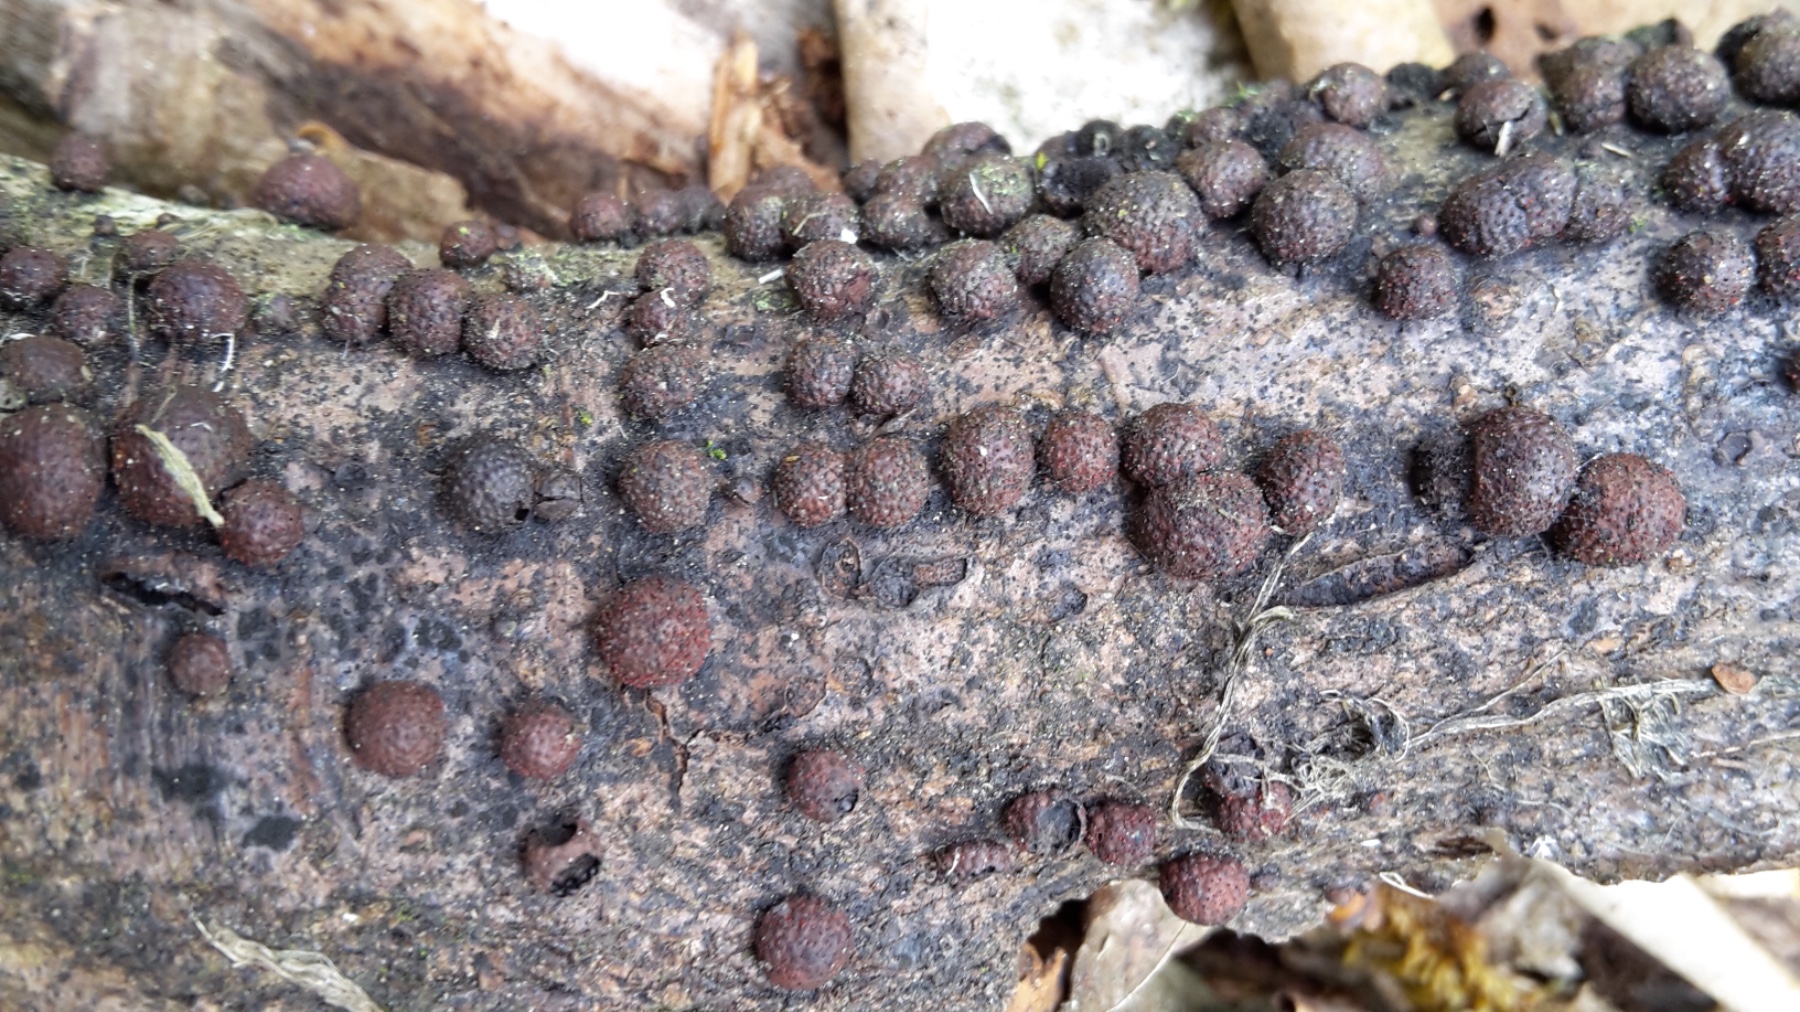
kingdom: Fungi
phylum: Ascomycota
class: Sordariomycetes
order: Xylariales
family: Hypoxylaceae
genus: Hypoxylon
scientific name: Hypoxylon fragiforme
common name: kuljordbær
